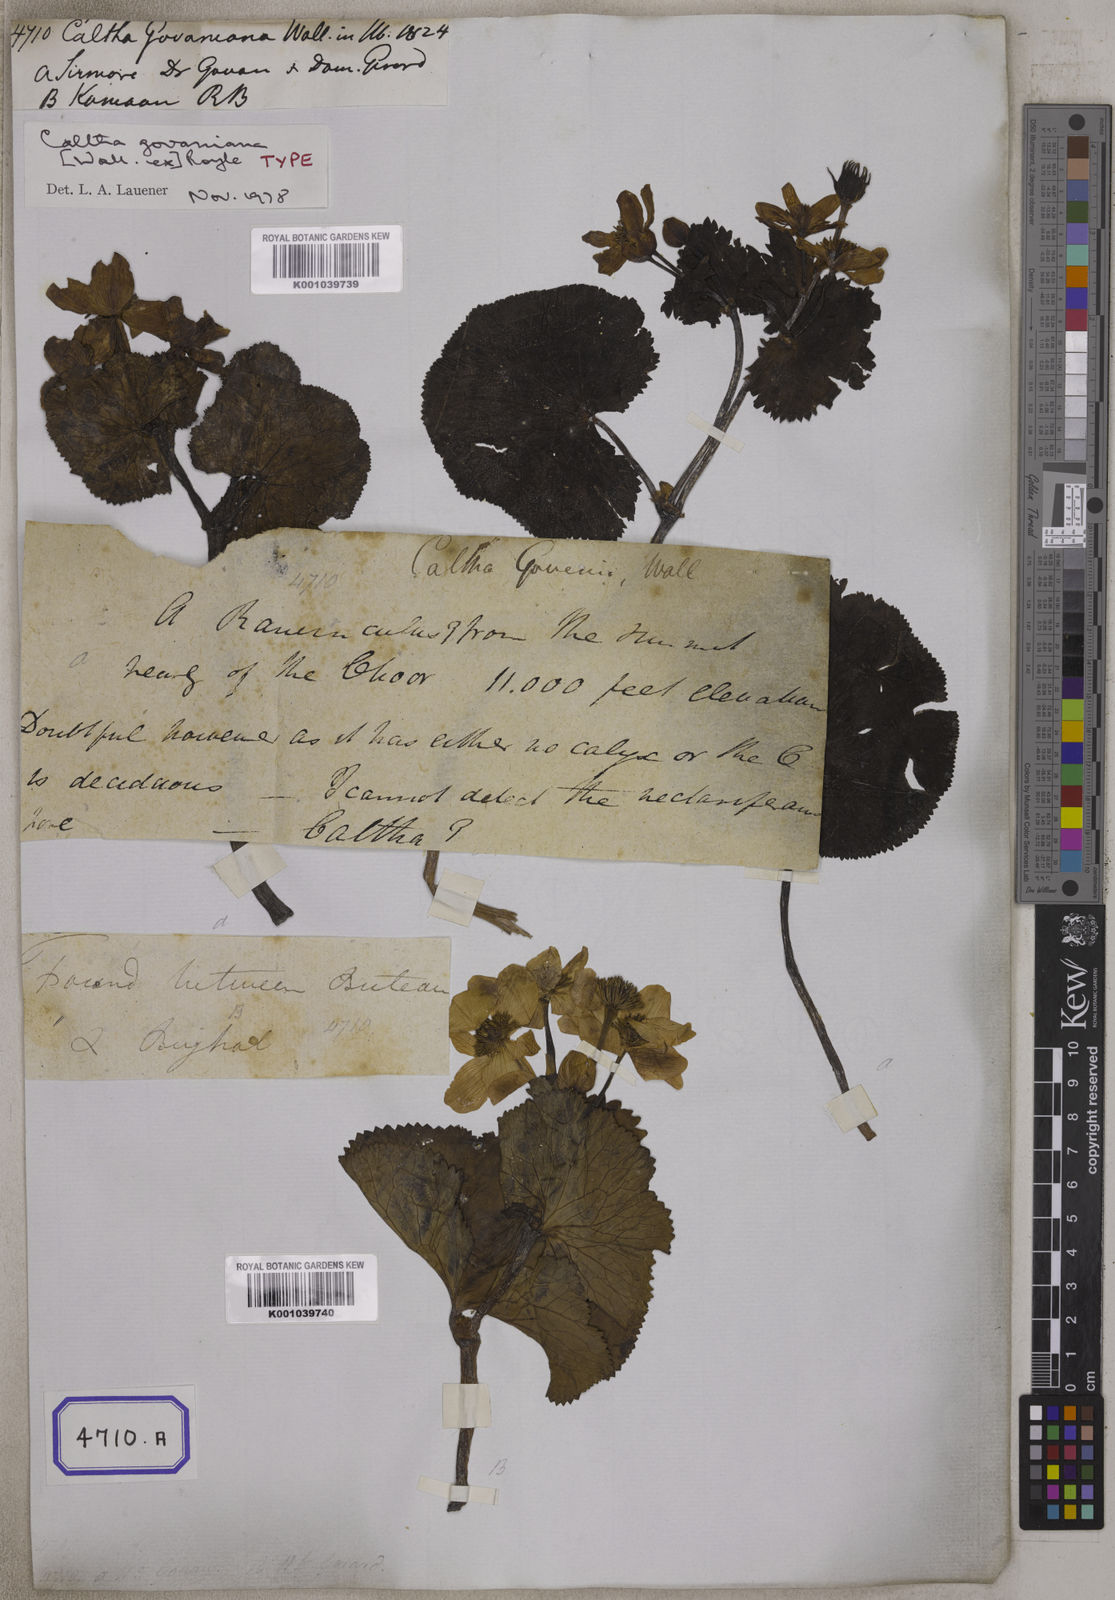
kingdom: Plantae
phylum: Tracheophyta
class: Magnoliopsida
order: Ranunculales
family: Ranunculaceae
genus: Caltha
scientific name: Caltha
